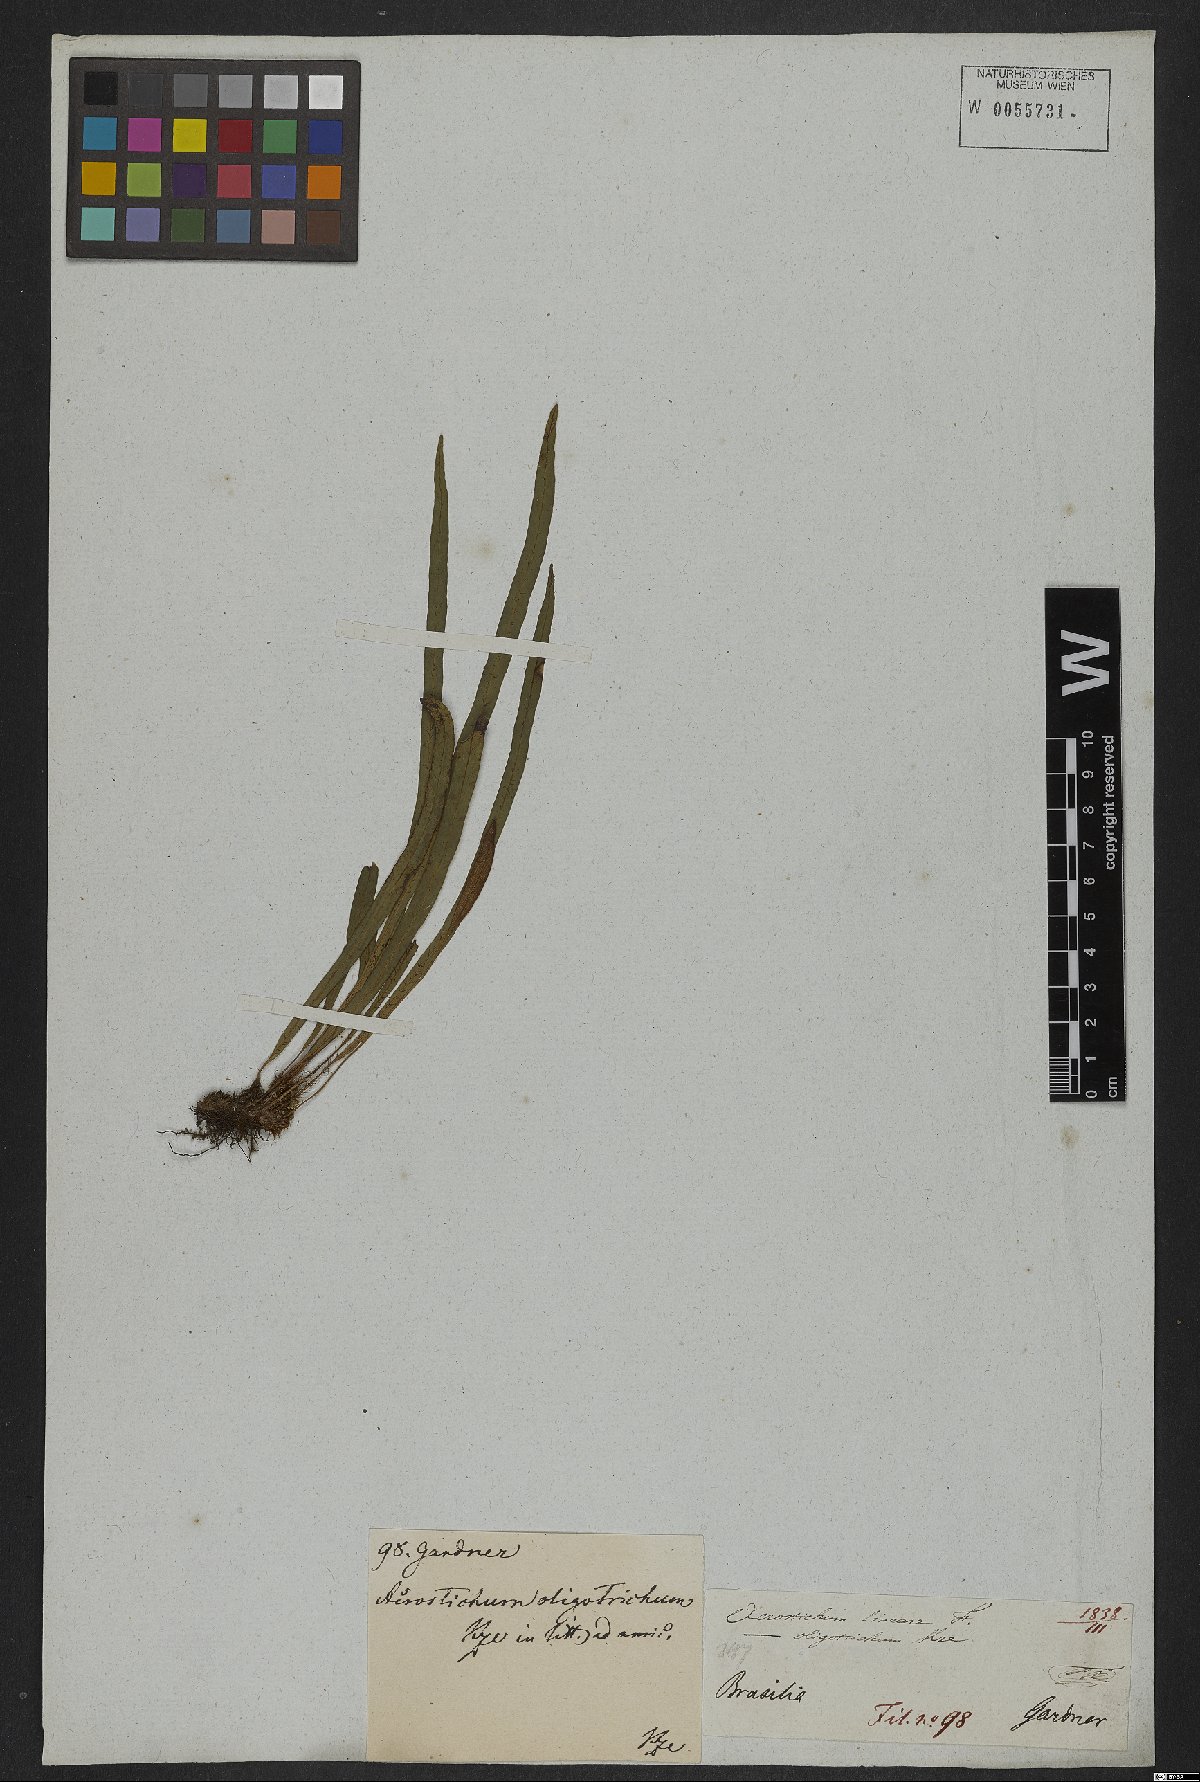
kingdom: Plantae
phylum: Tracheophyta
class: Polypodiopsida
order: Polypodiales
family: Dryopteridaceae
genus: Elaphoglossum
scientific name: Elaphoglossum brachyneuron
